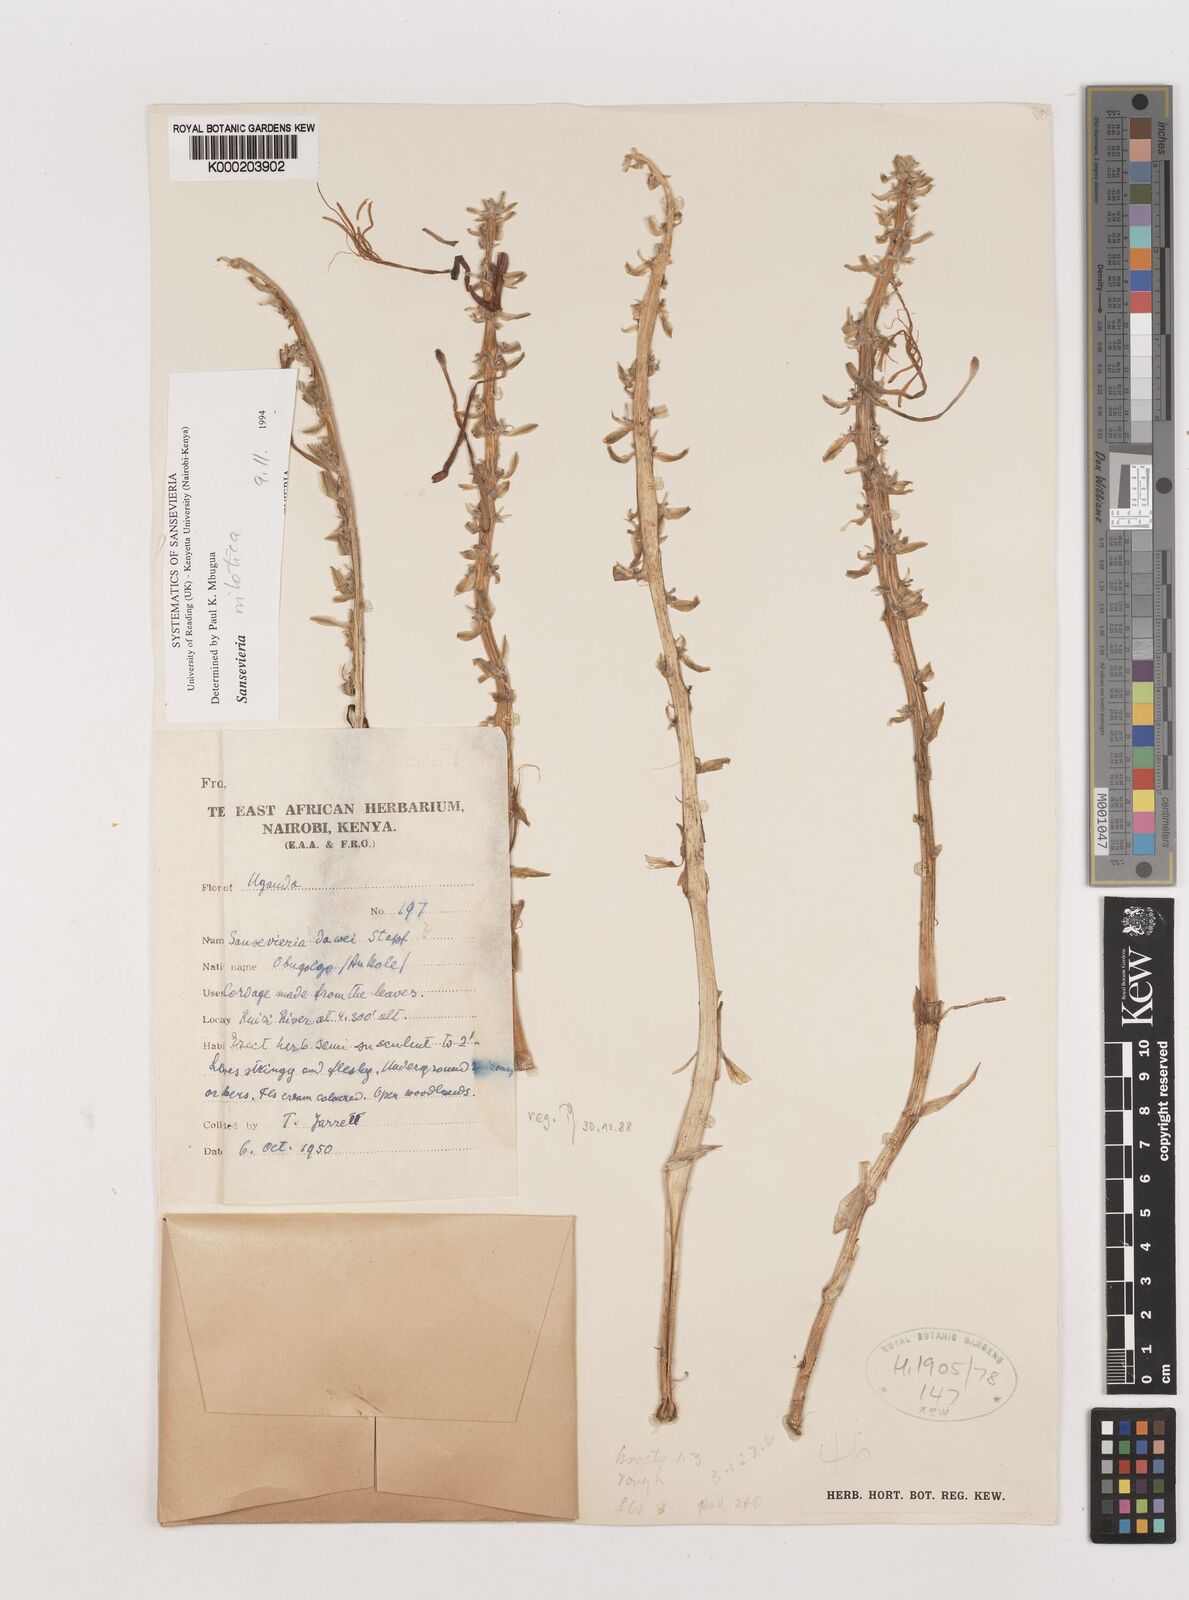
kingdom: Plantae
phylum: Tracheophyta
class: Liliopsida
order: Asparagales
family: Asparagaceae
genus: Dracaena
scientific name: Dracaena dawei
